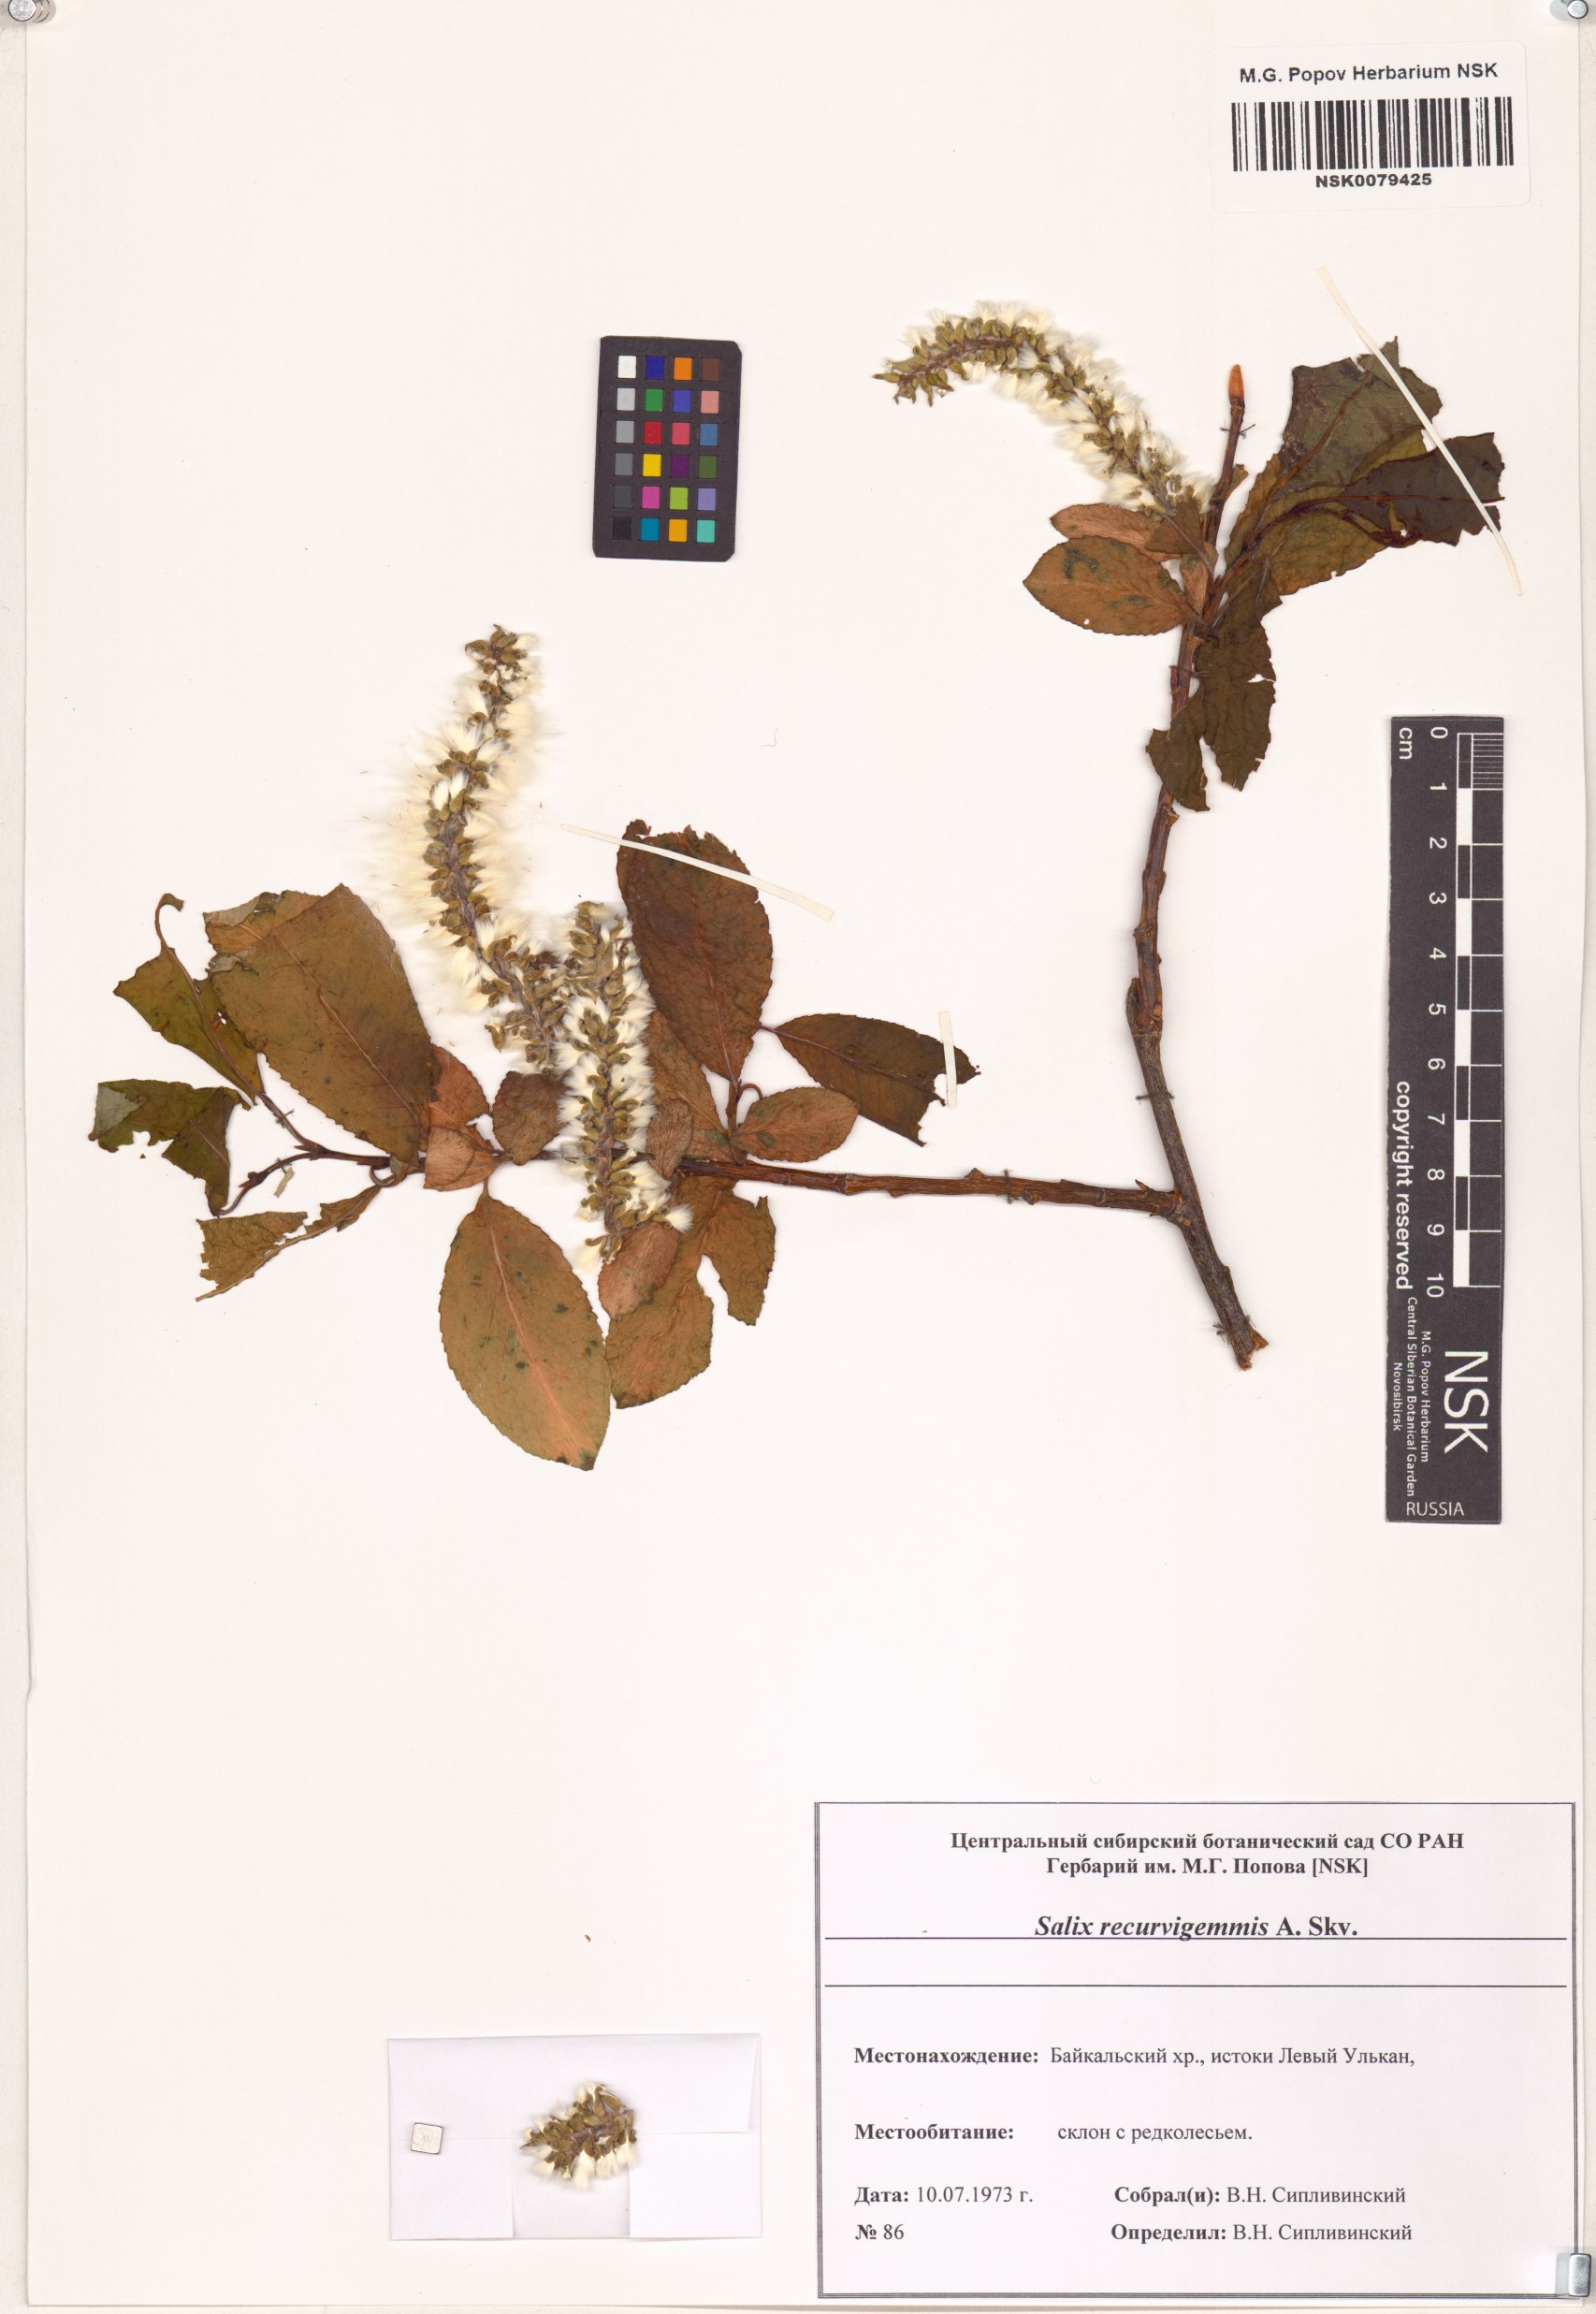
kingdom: Plantae
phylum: Tracheophyta
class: Magnoliopsida
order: Malpighiales
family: Salicaceae
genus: Salix
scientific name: Salix recurvigemmata
